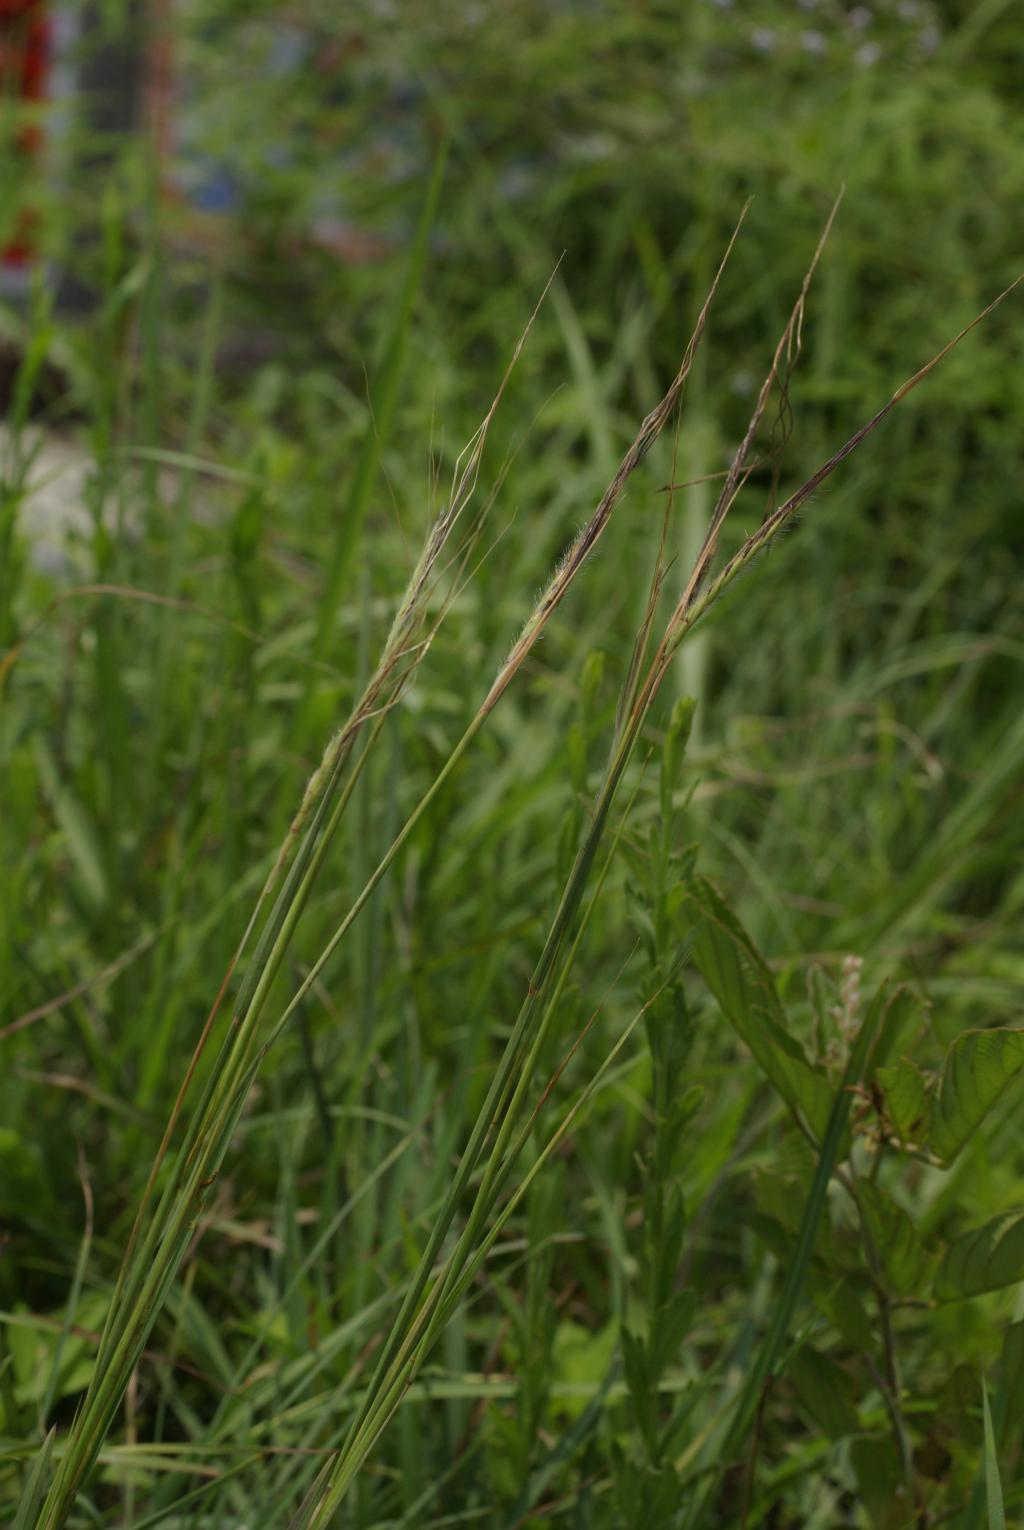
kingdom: Plantae
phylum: Tracheophyta
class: Liliopsida
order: Poales
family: Poaceae
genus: Heteropogon
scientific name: Heteropogon contortus
